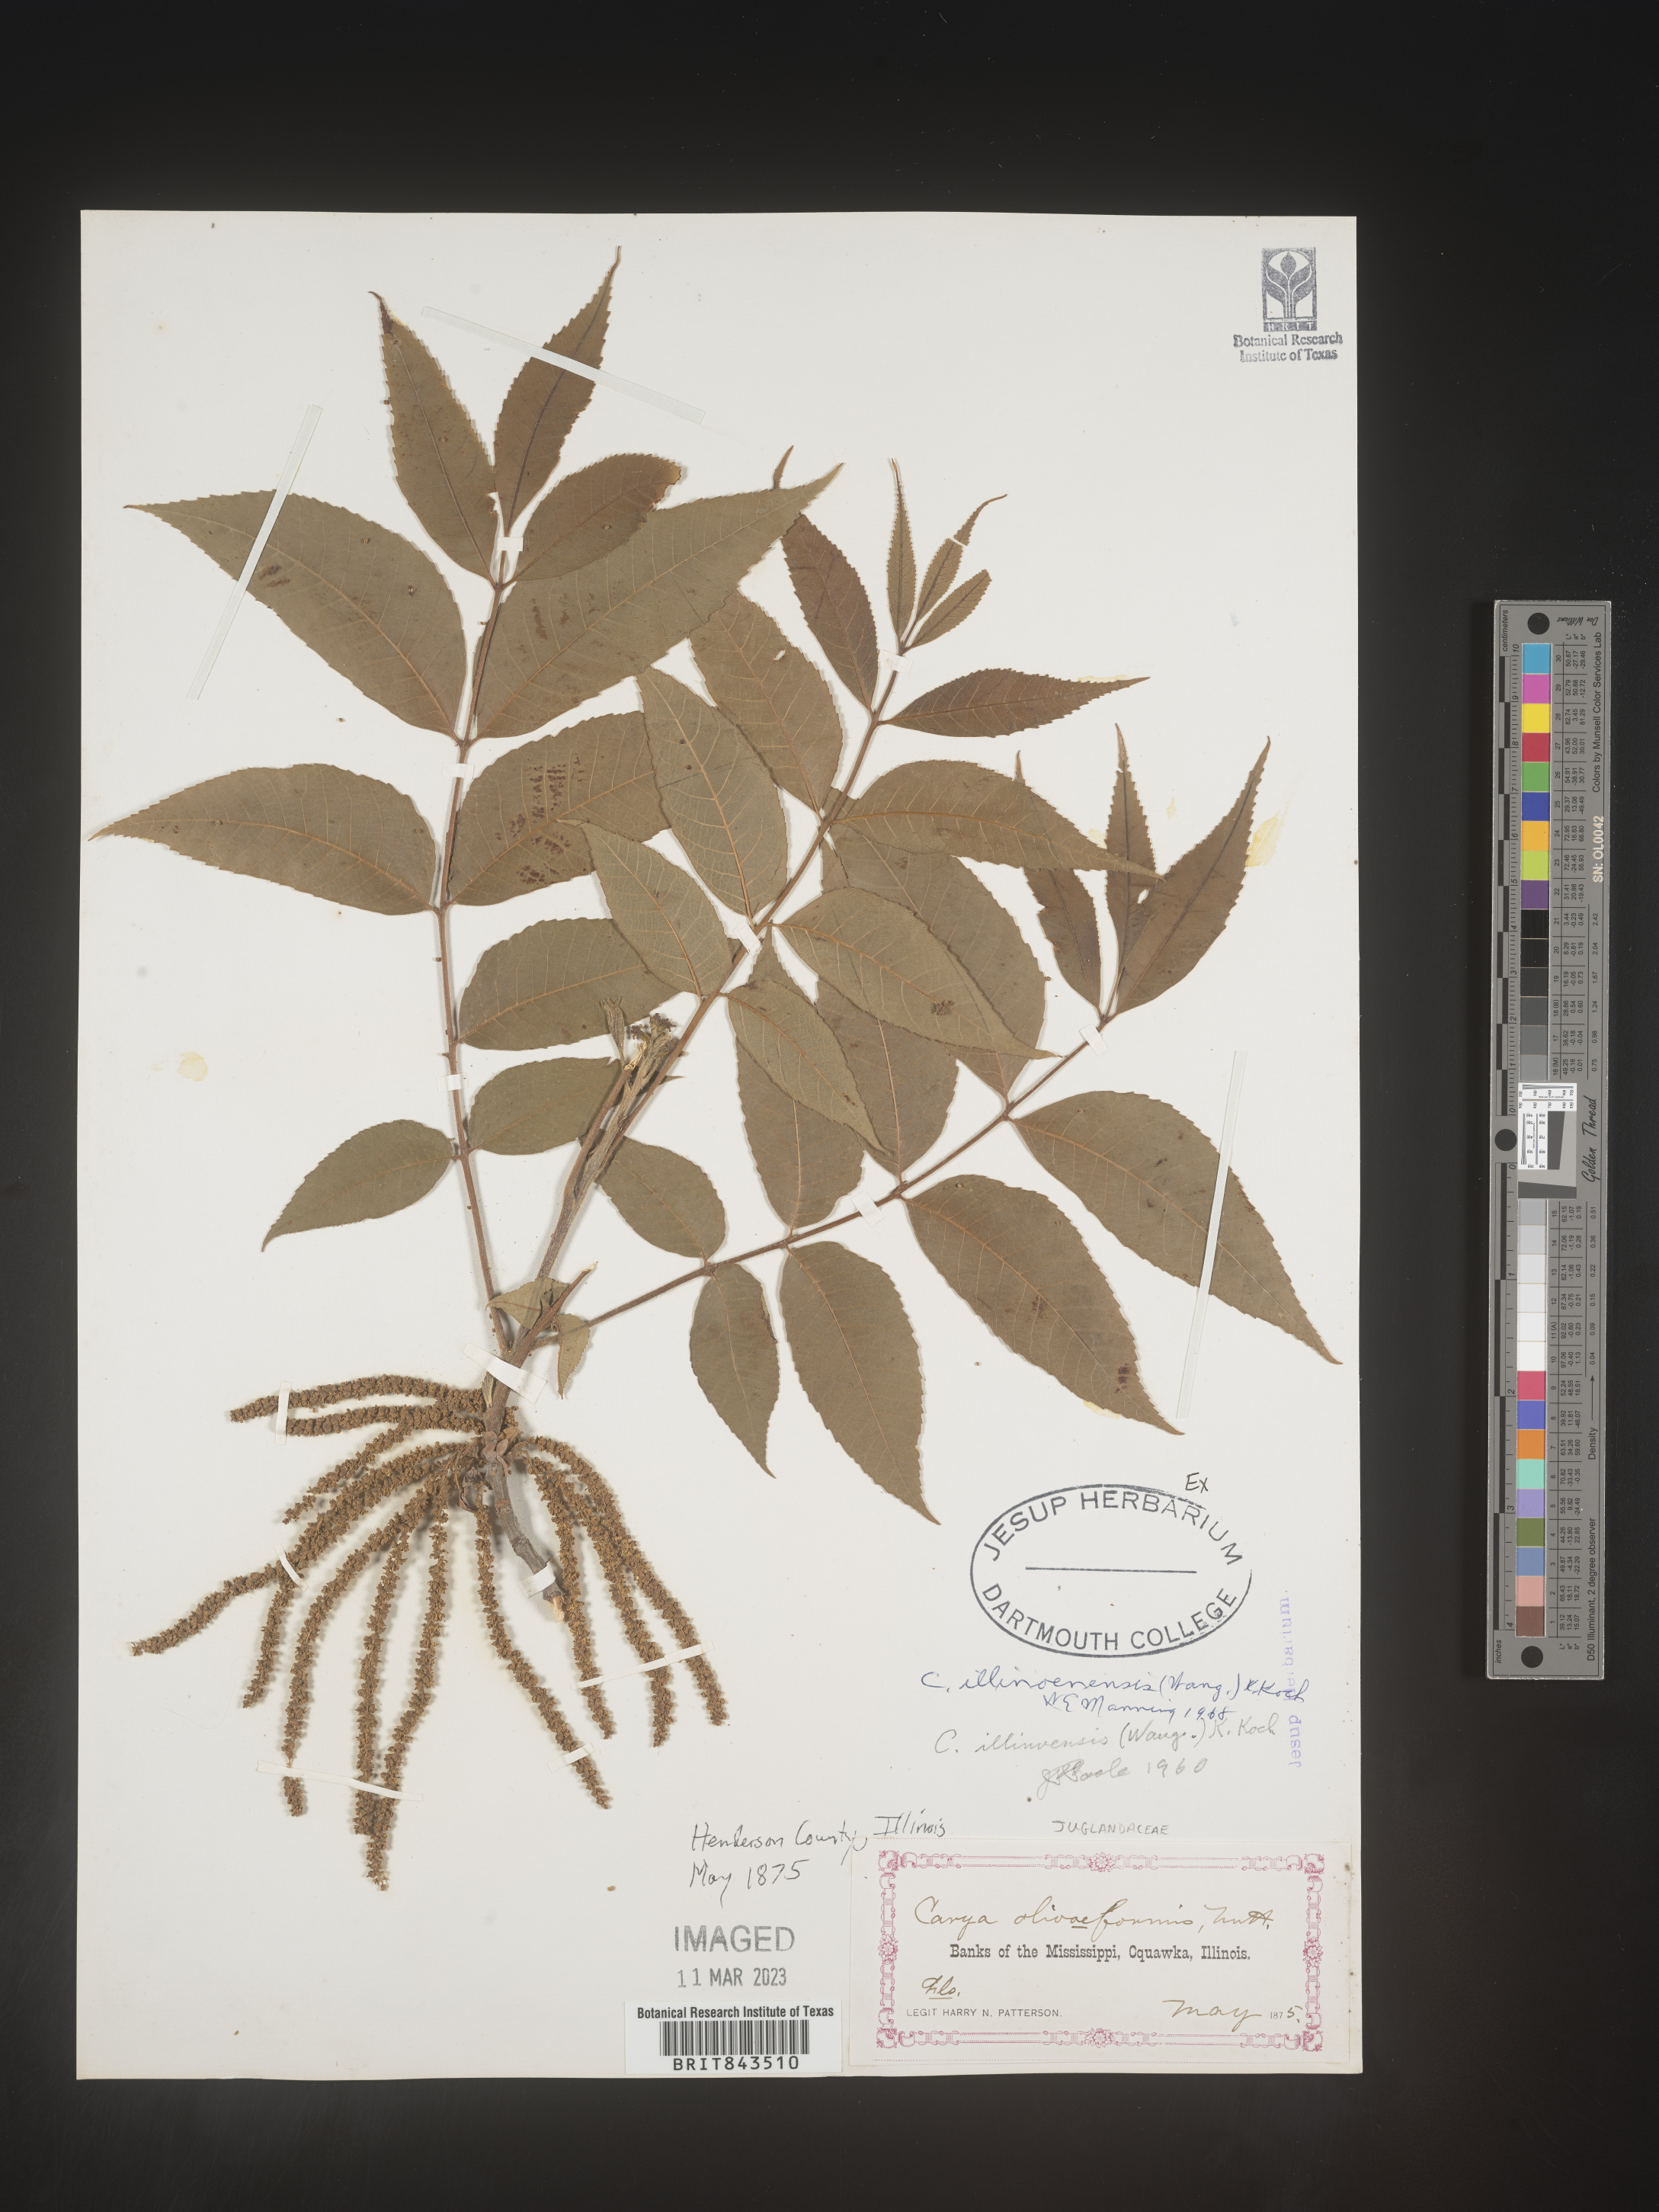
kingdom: Plantae
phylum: Tracheophyta
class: Magnoliopsida
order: Fagales
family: Juglandaceae
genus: Carya
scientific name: Carya illinoinensis
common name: Pecan
